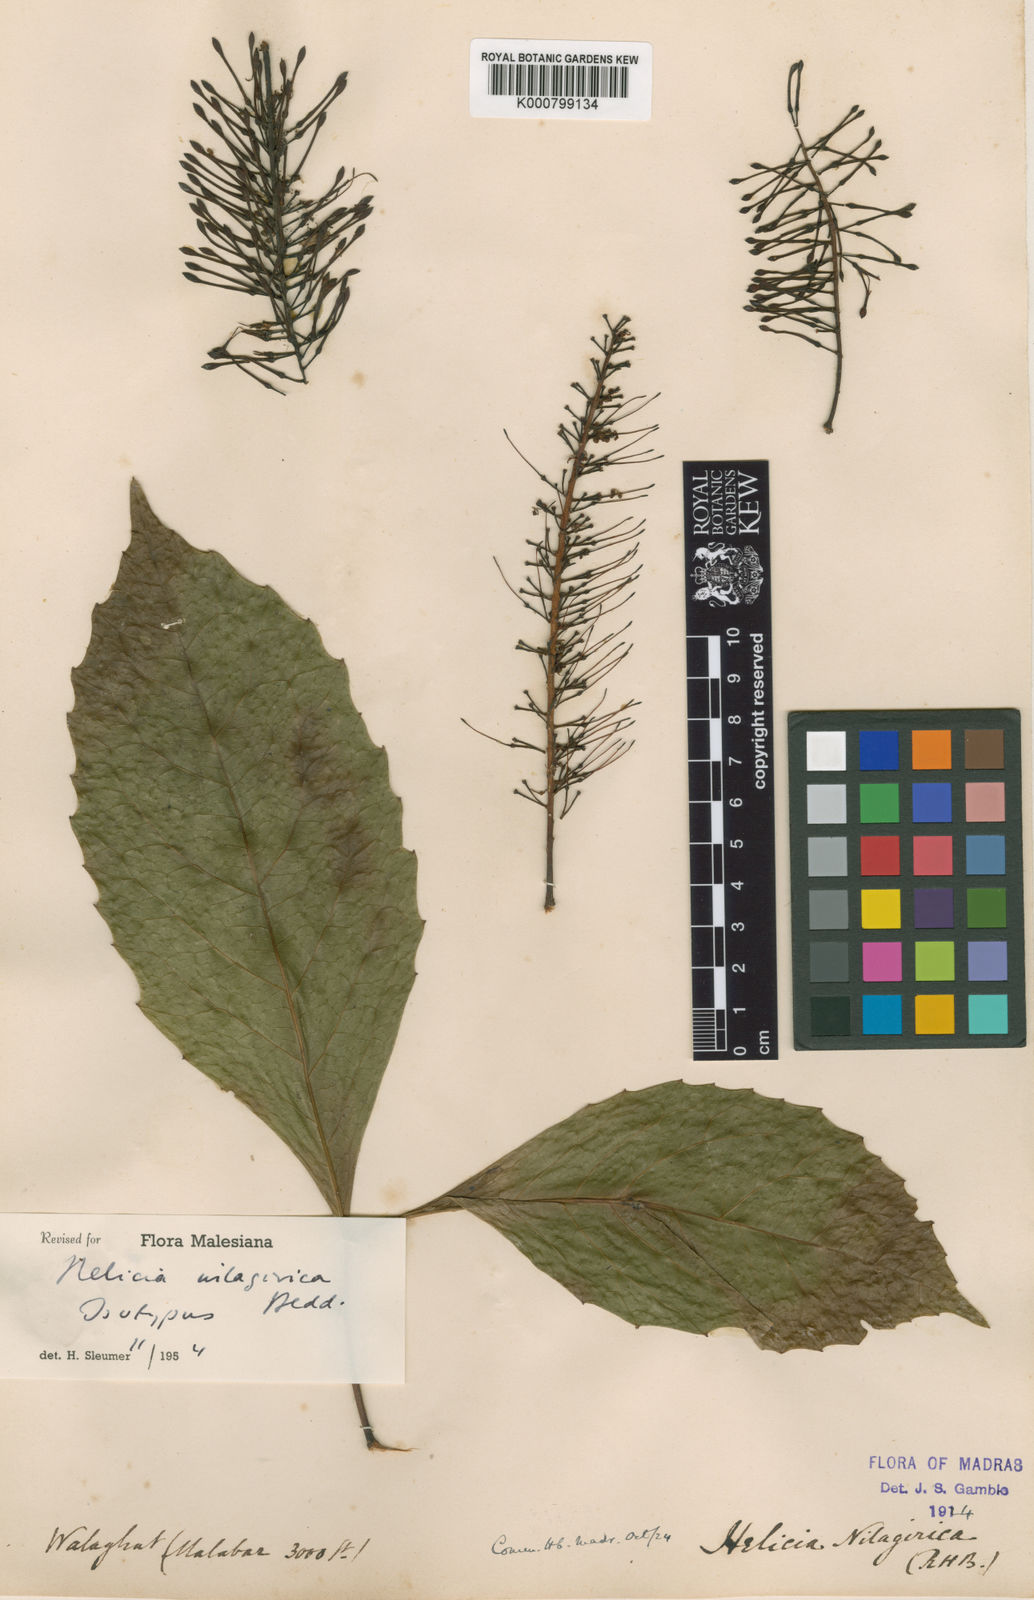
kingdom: Plantae
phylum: Tracheophyta
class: Magnoliopsida
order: Proteales
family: Proteaceae
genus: Helicia
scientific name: Helicia nilagirica
